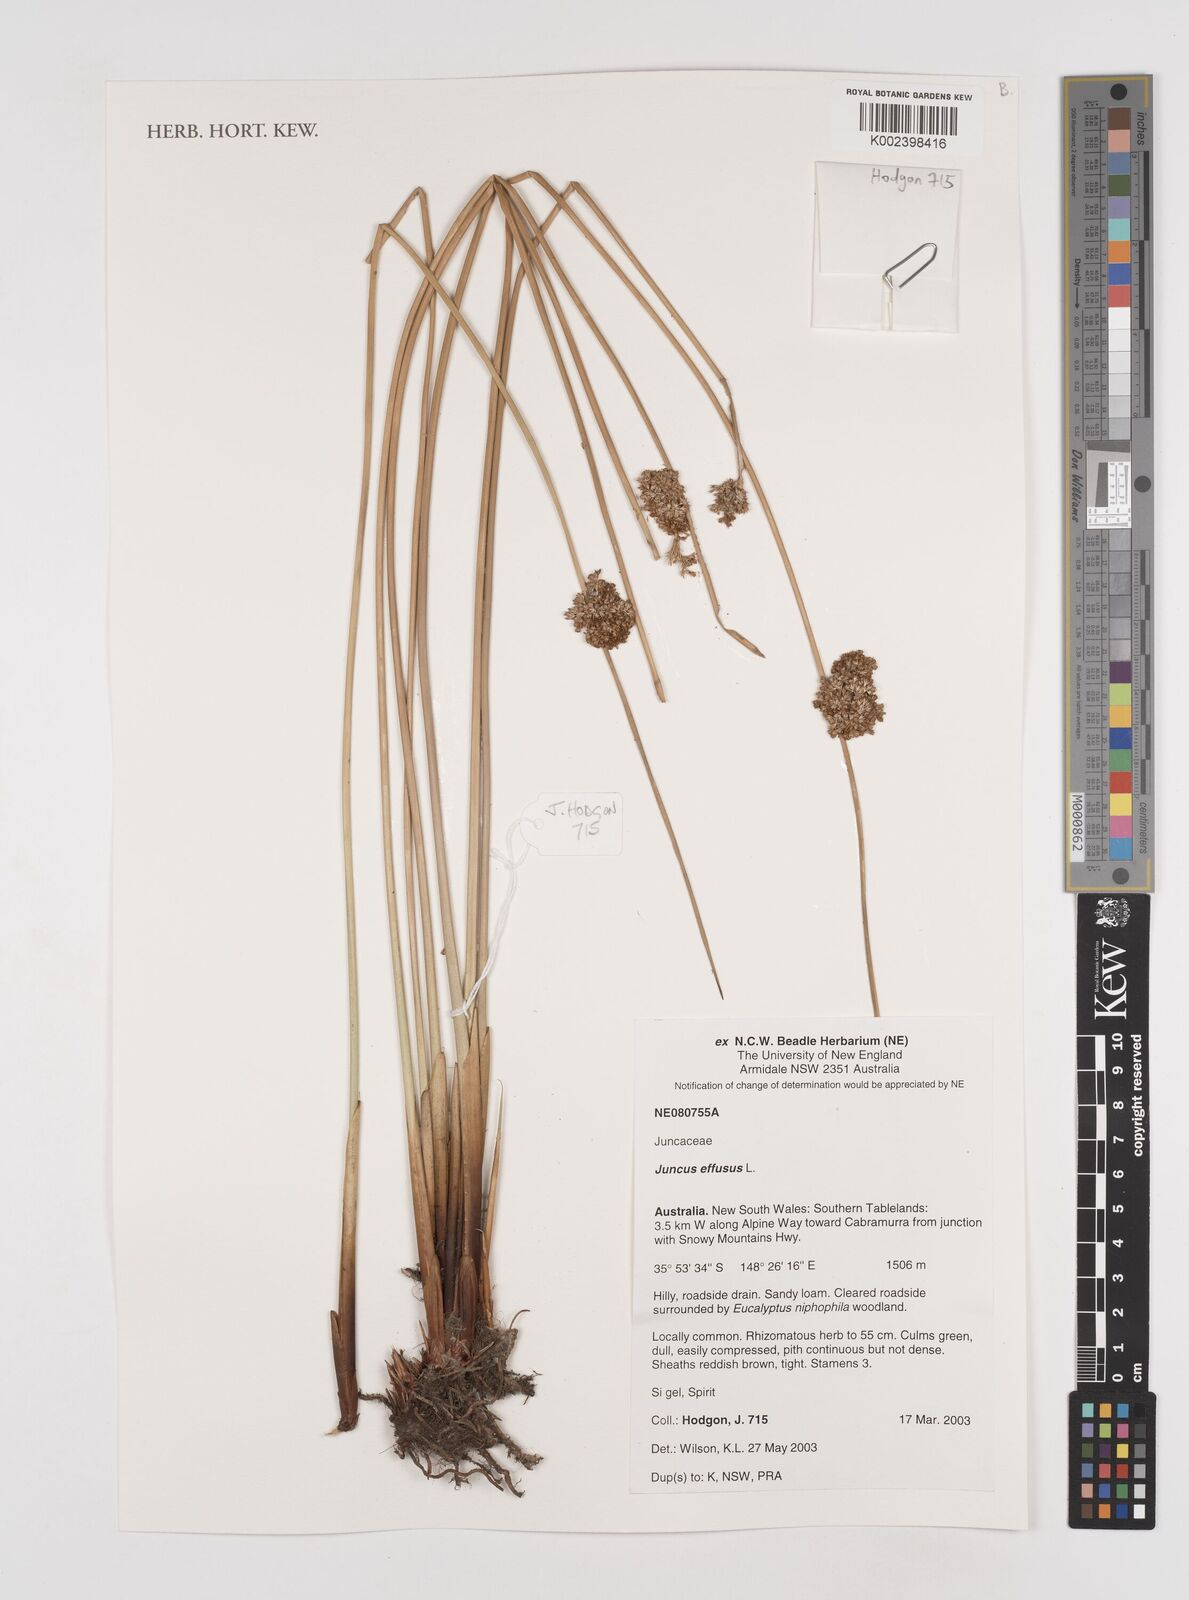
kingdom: Plantae
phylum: Tracheophyta
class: Liliopsida
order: Poales
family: Juncaceae
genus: Juncus
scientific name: Juncus effusus
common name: Soft rush
